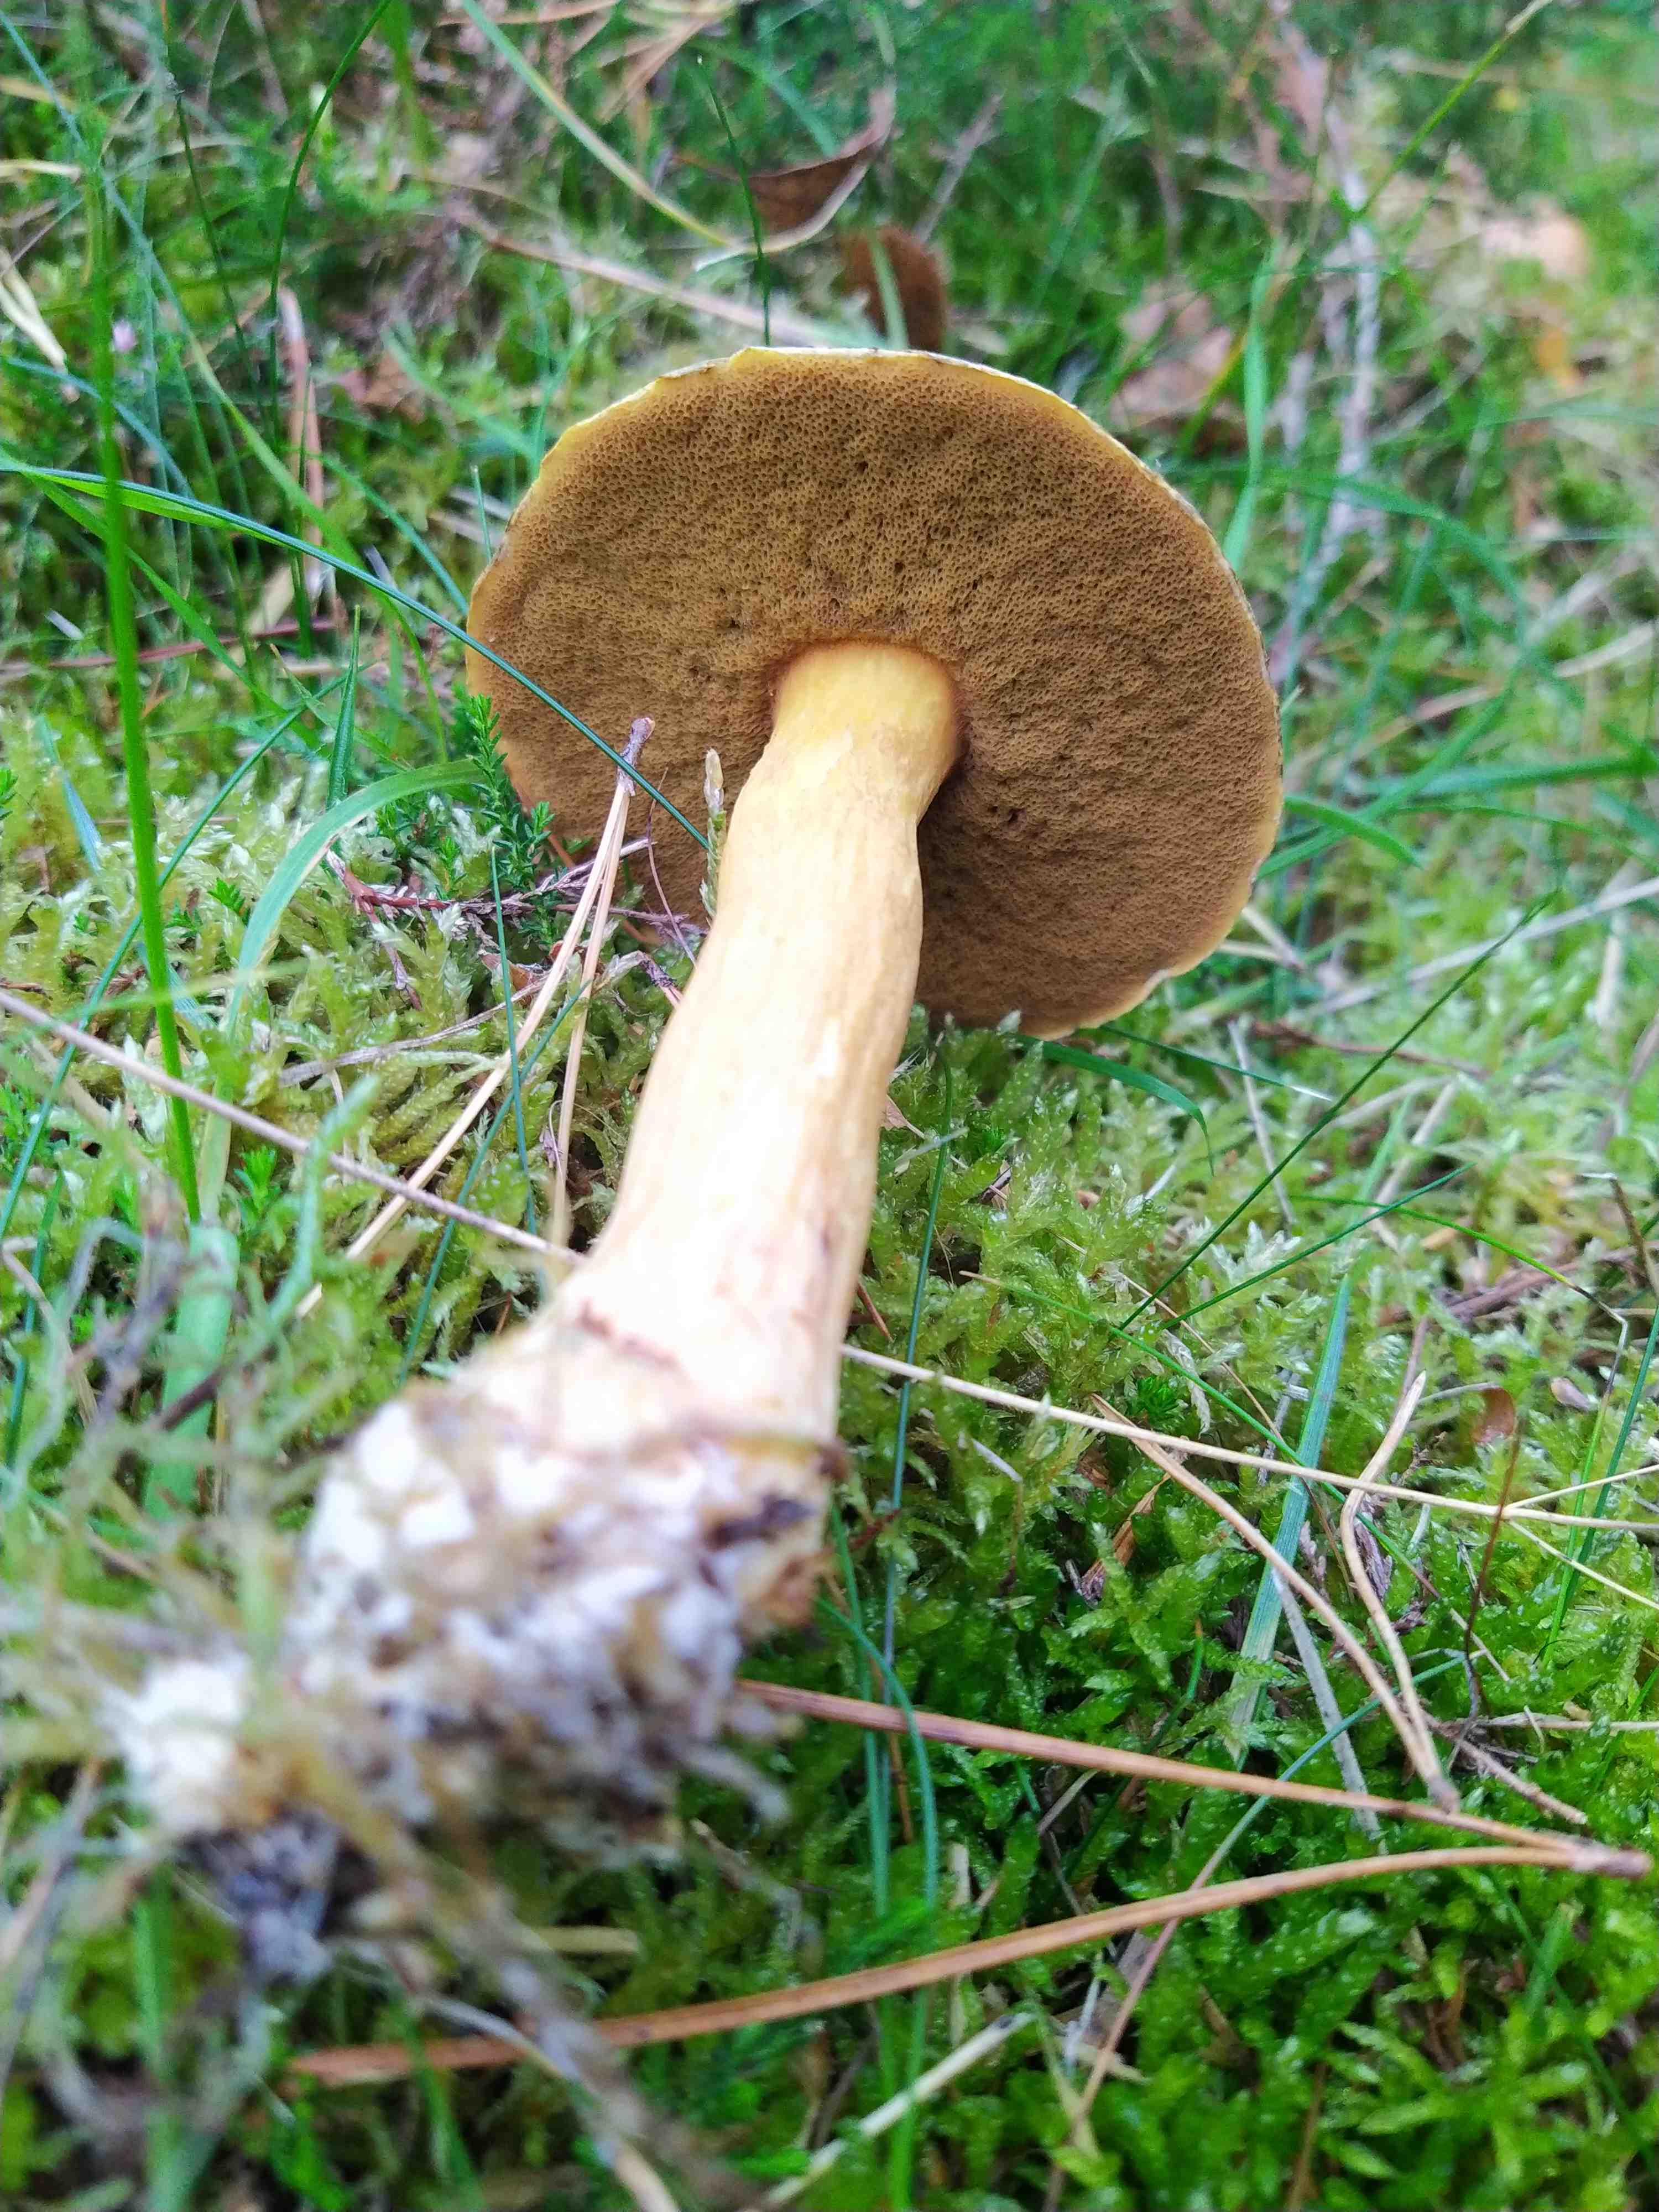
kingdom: Fungi
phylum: Basidiomycota
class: Agaricomycetes
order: Boletales
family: Suillaceae
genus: Suillus
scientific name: Suillus variegatus
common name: broget slimrørhat
